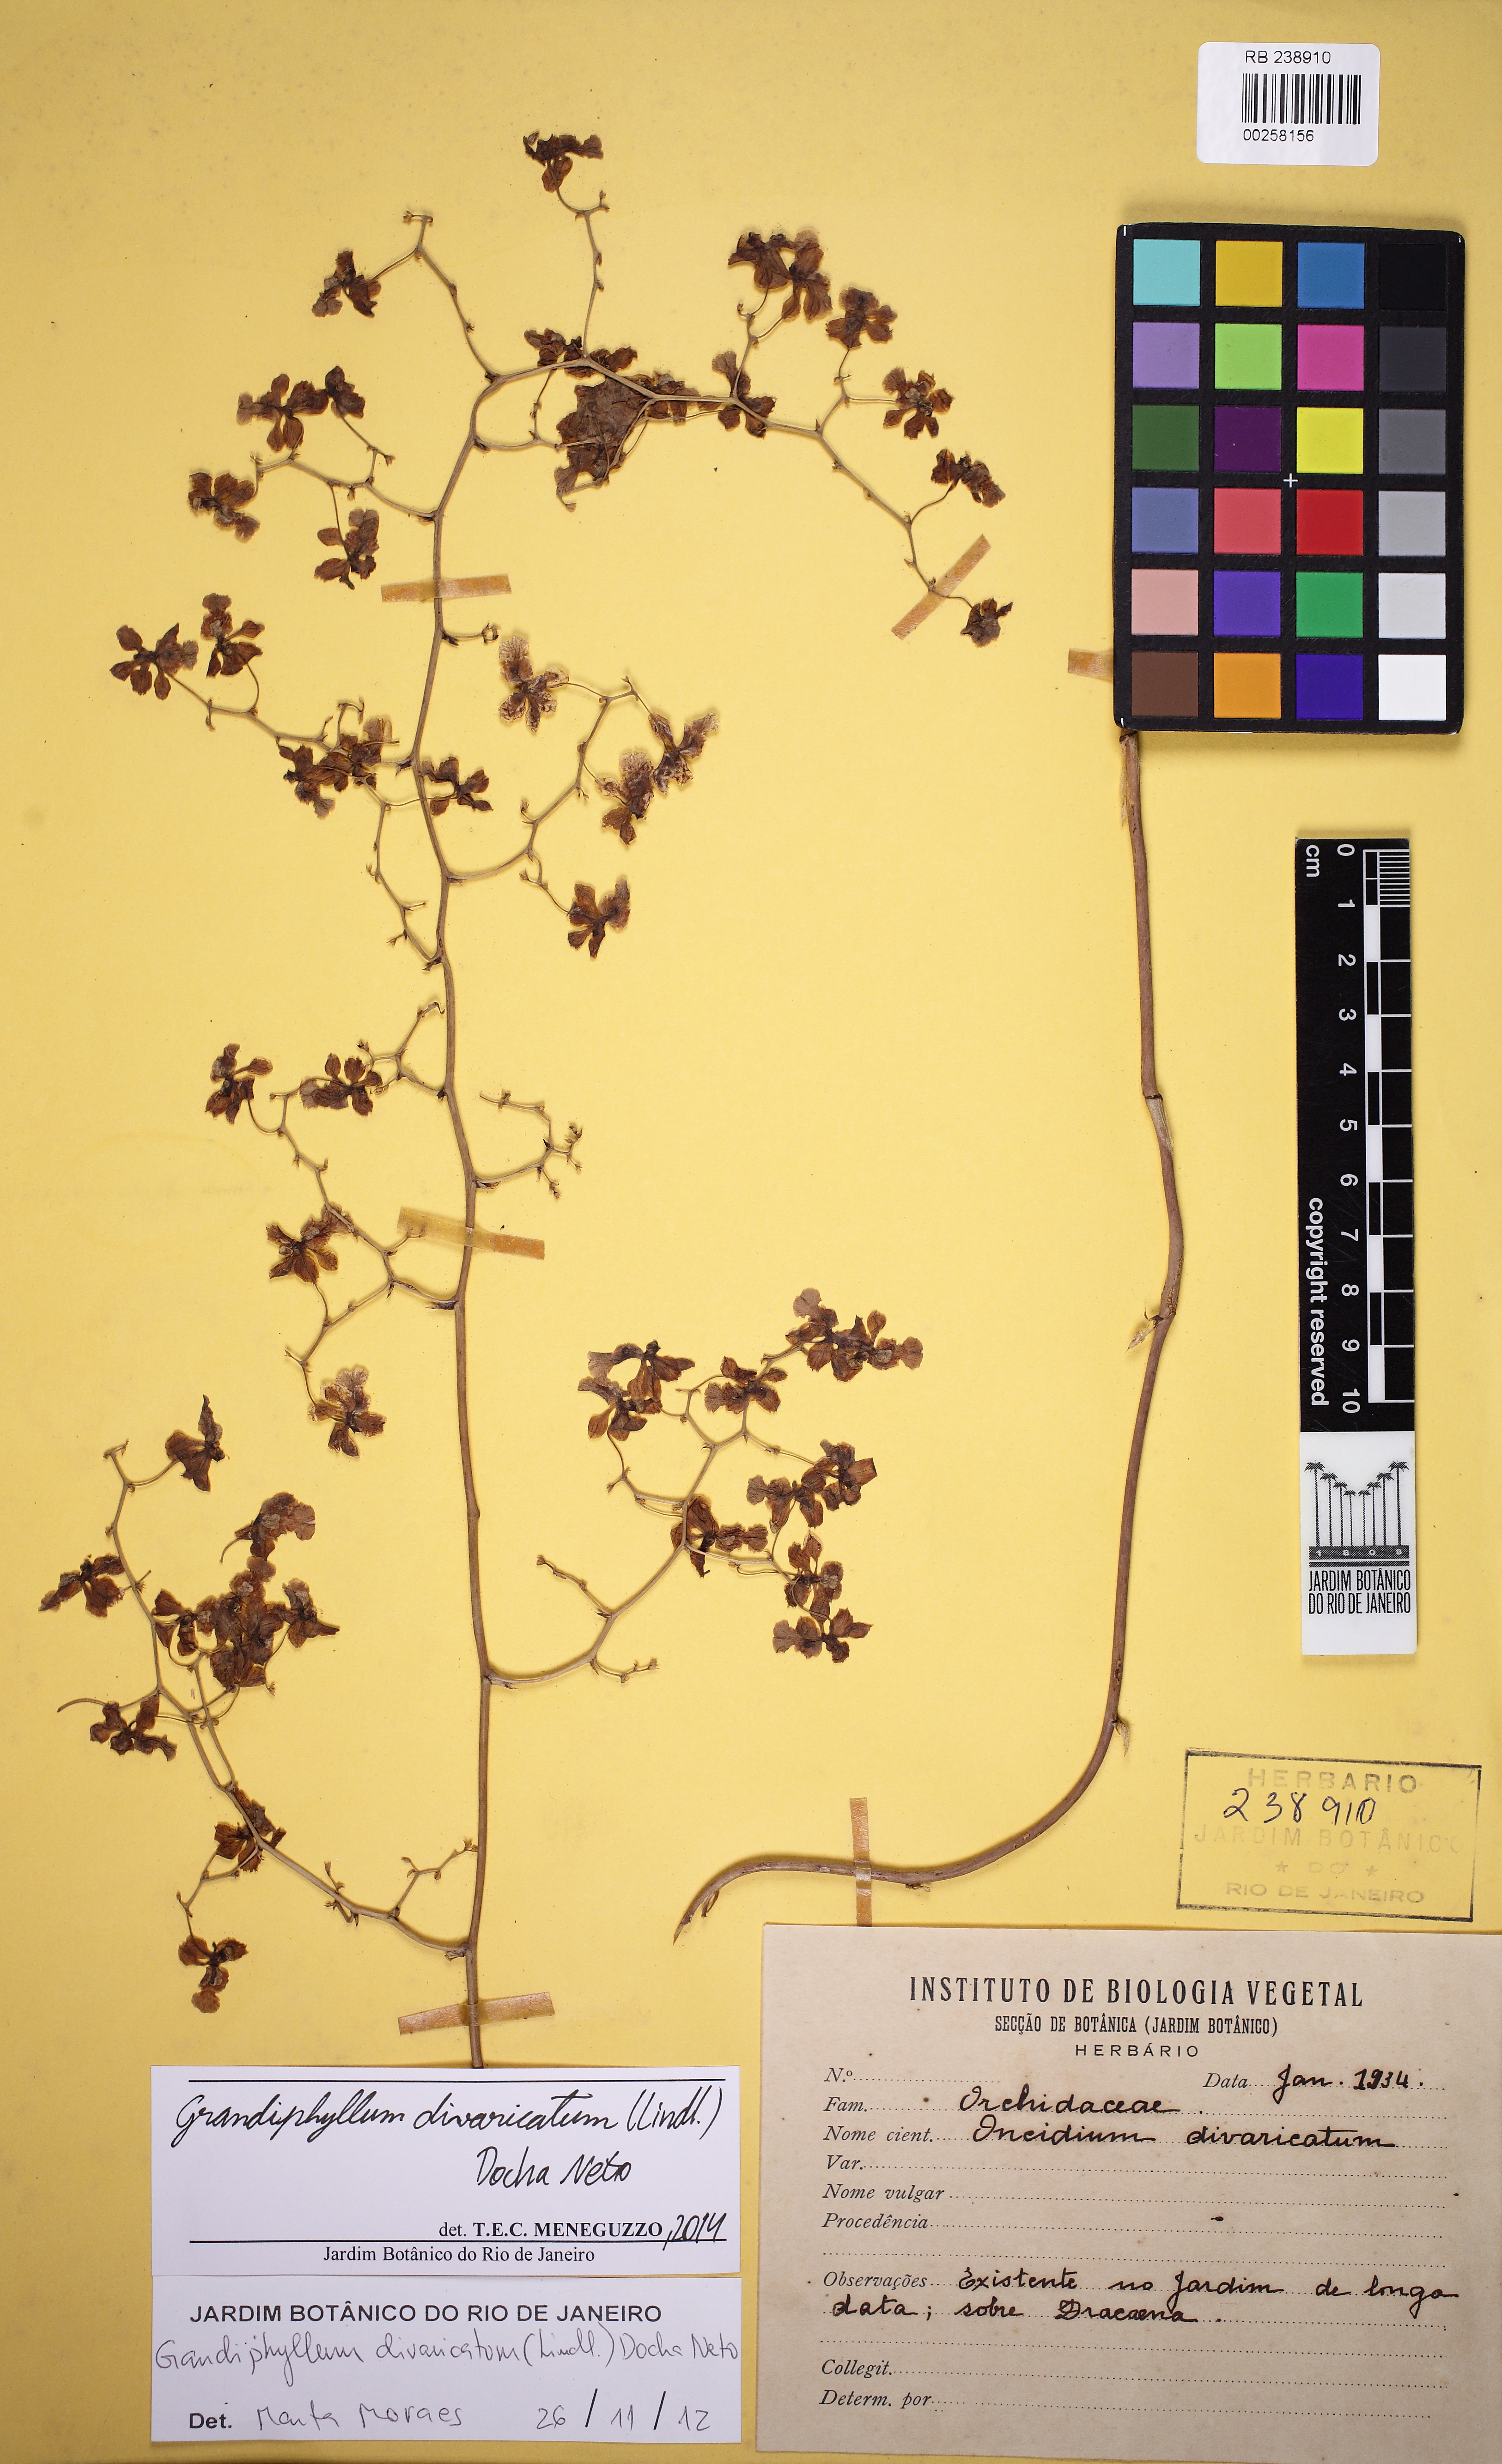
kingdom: Plantae
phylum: Tracheophyta
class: Liliopsida
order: Asparagales
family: Orchidaceae
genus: Grandiphyllum
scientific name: Grandiphyllum divaricatum
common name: Mule-ear orchid
